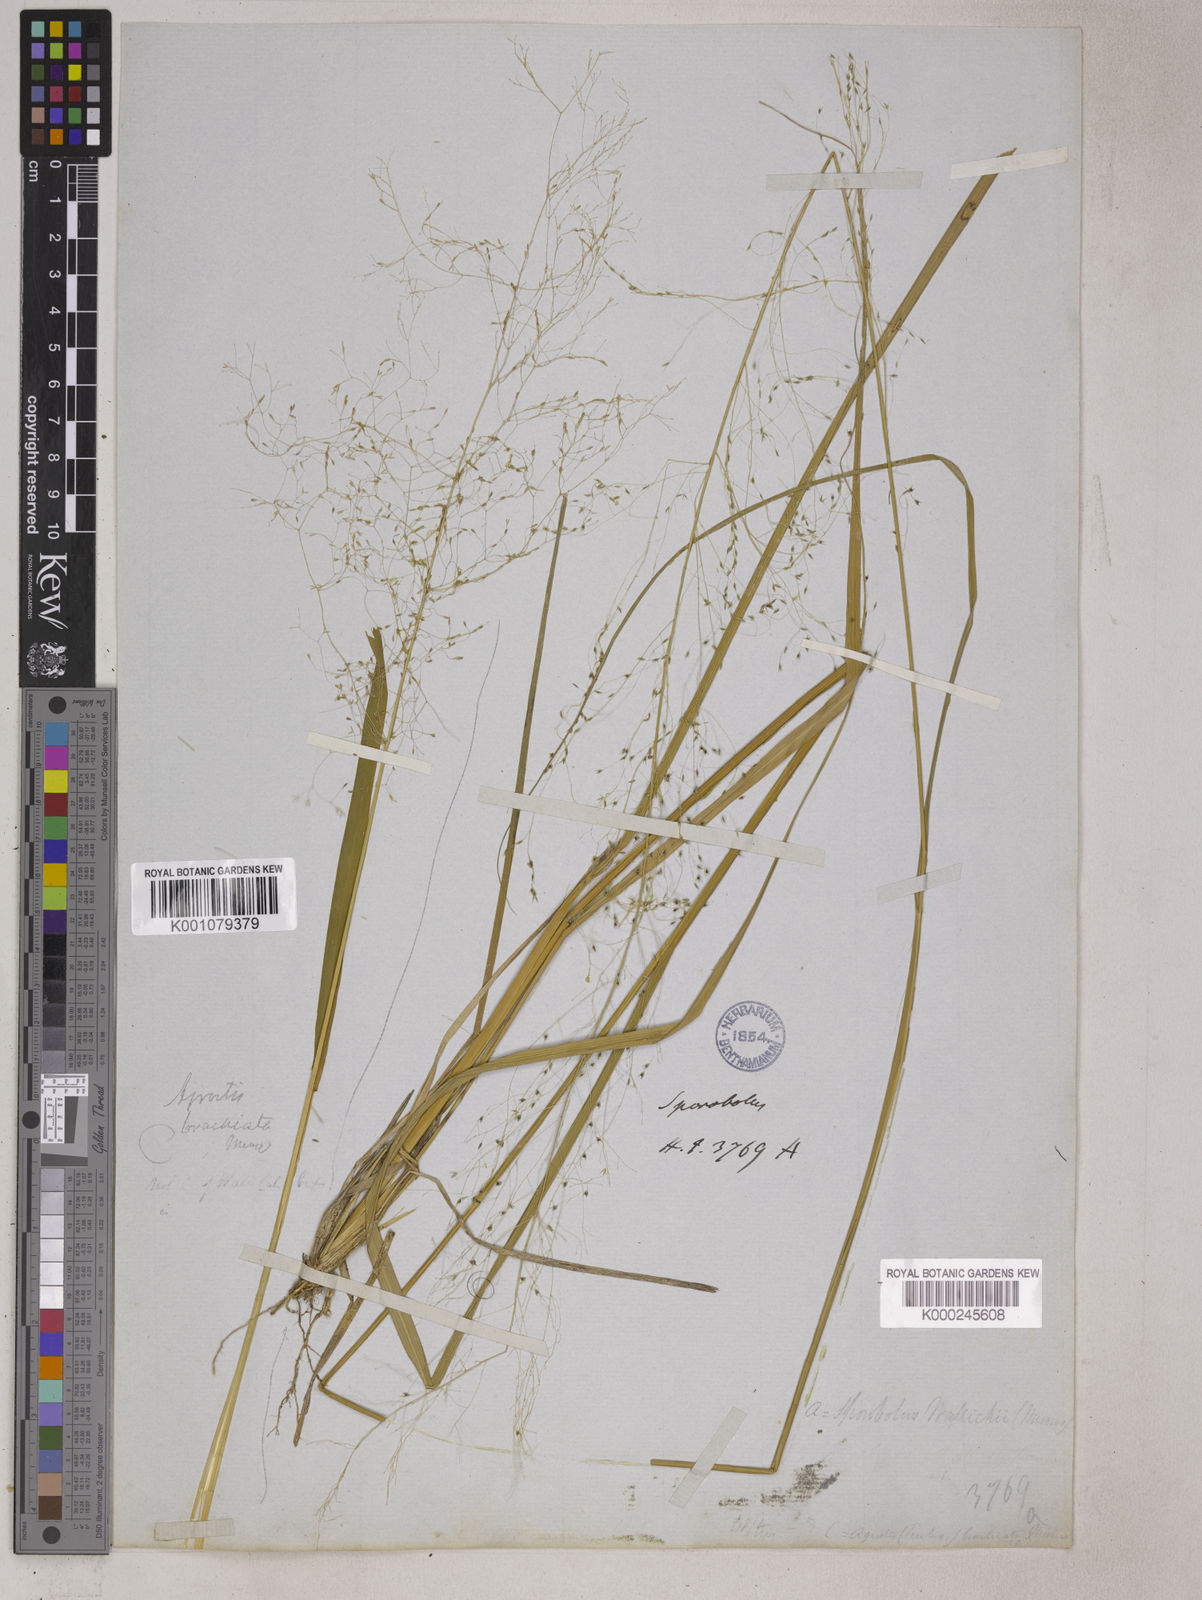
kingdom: Plantae
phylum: Tracheophyta
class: Liliopsida
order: Poales
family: Poaceae
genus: Sporobolus
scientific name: Sporobolus
